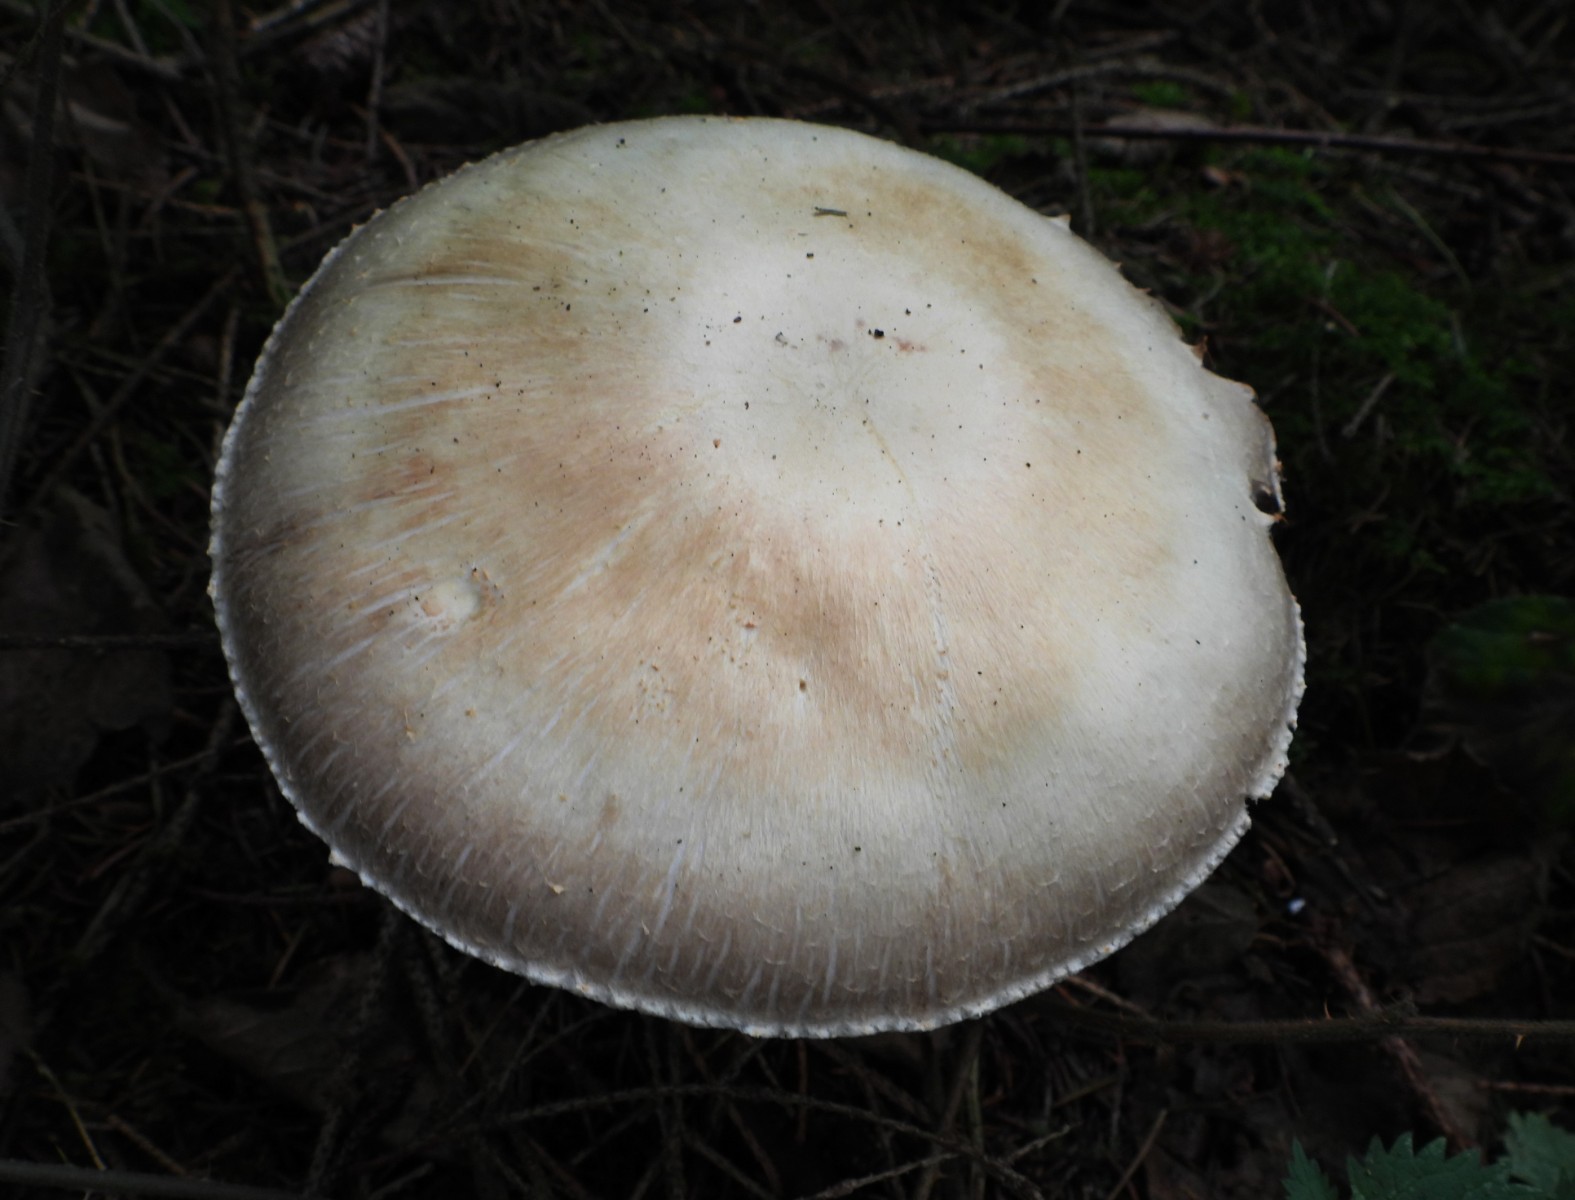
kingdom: Fungi
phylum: Basidiomycota
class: Agaricomycetes
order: Agaricales
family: Agaricaceae
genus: Agaricus
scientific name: Agaricus sylvicola
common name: skiveknoldet champignon
